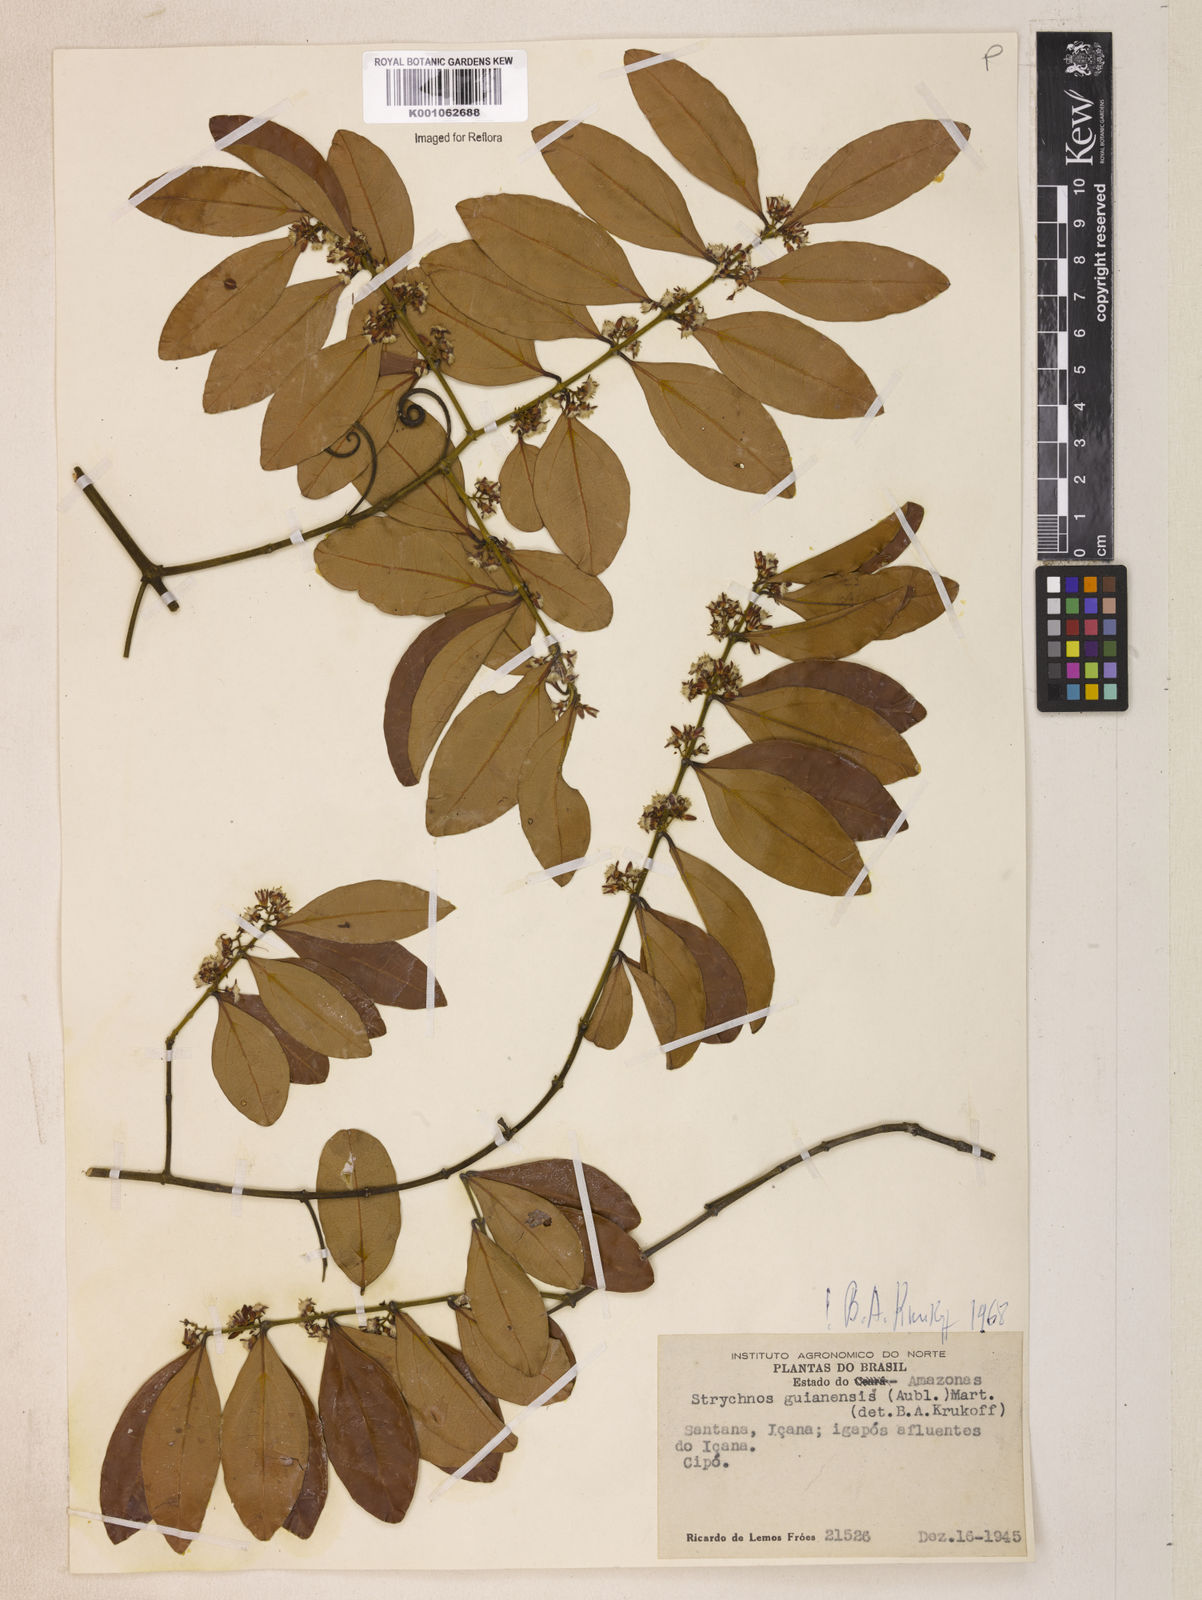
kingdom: Plantae
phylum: Tracheophyta
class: Magnoliopsida
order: Gentianales
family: Loganiaceae
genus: Strychnos
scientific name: Strychnos guianensis
